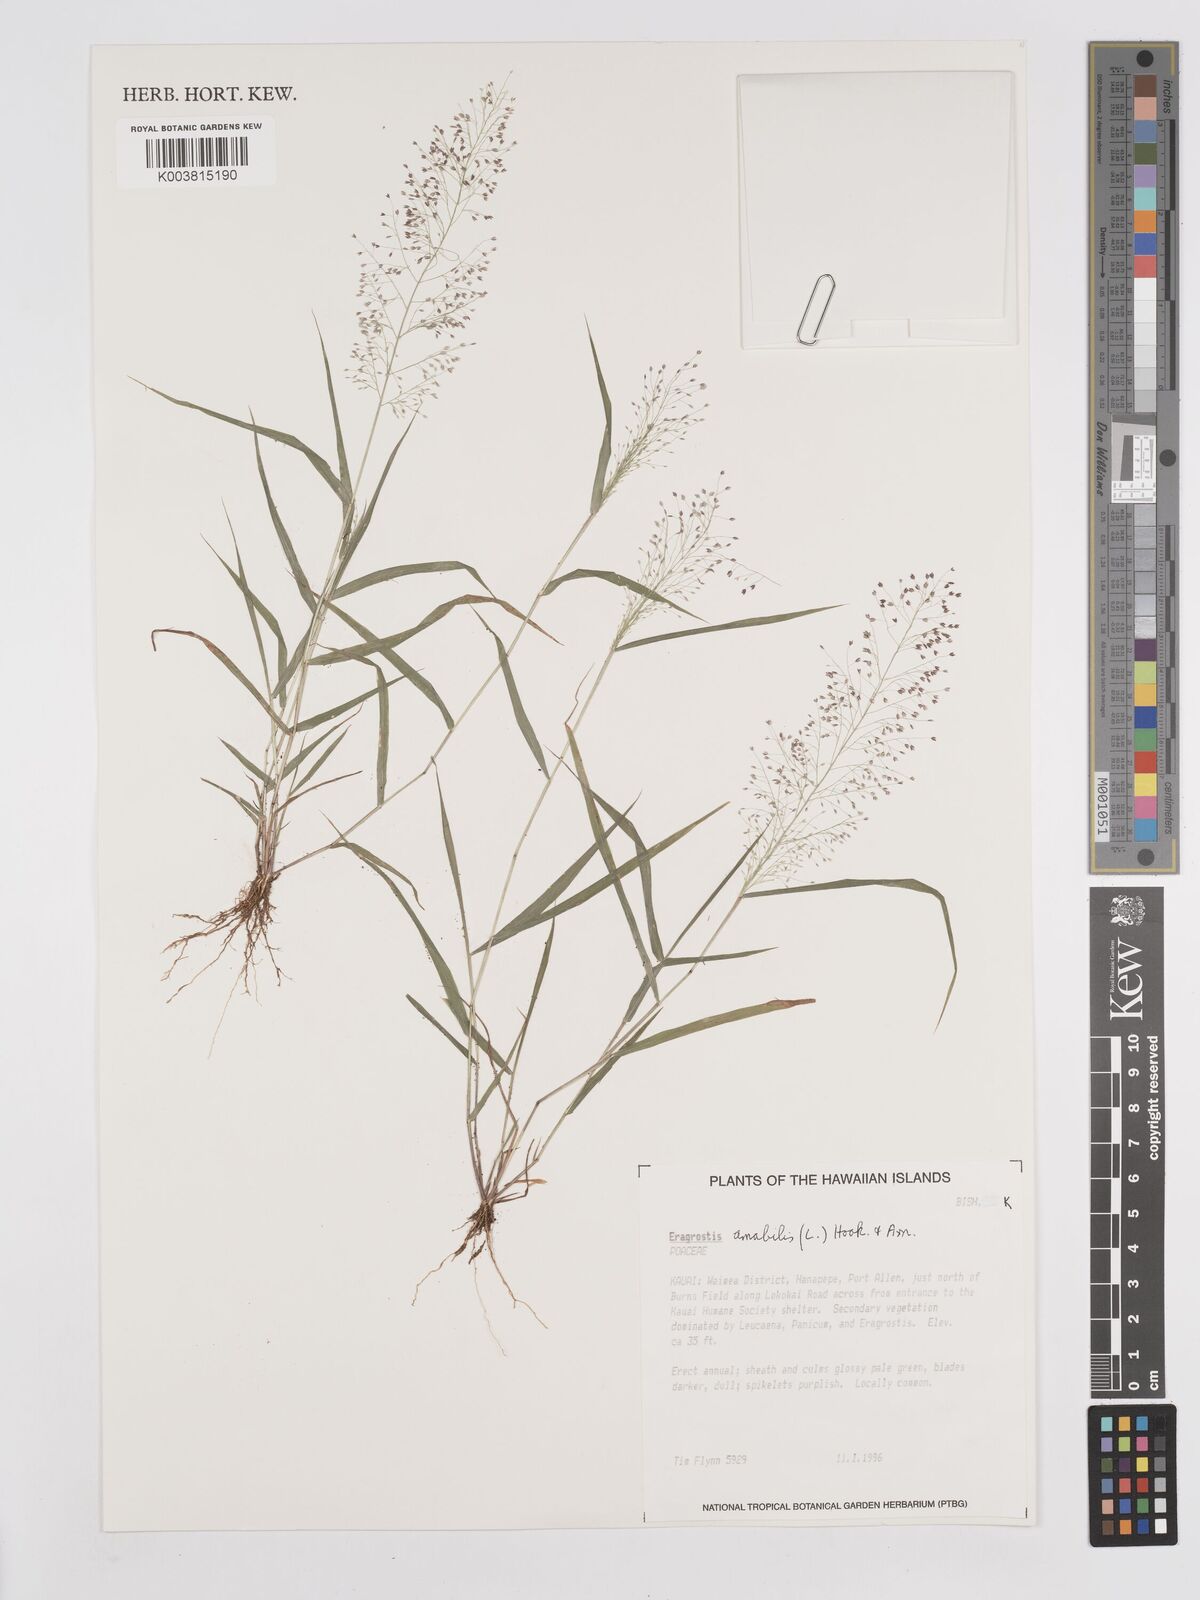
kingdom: Plantae
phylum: Tracheophyta
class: Liliopsida
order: Poales
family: Poaceae
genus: Eragrostis
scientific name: Eragrostis tenella
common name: Japanese lovegrass
